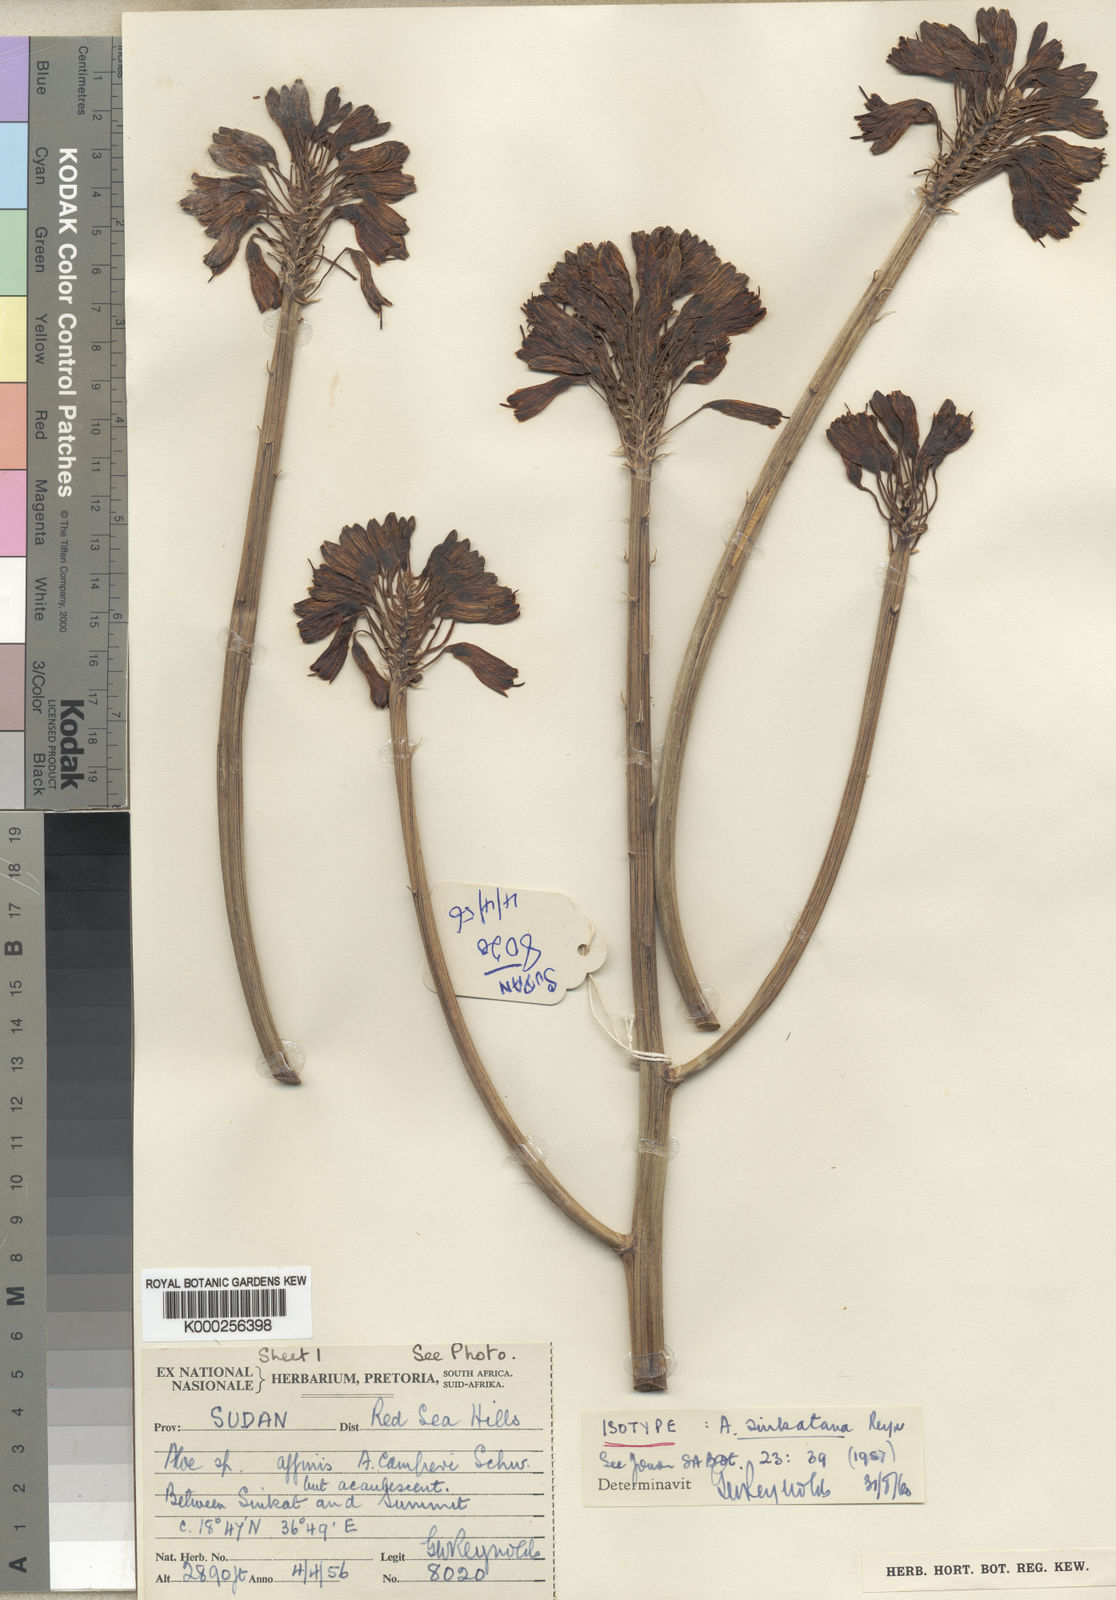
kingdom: Plantae
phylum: Tracheophyta
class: Liliopsida
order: Asparagales
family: Asphodelaceae
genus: Aloe
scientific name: Aloe sinkatana
